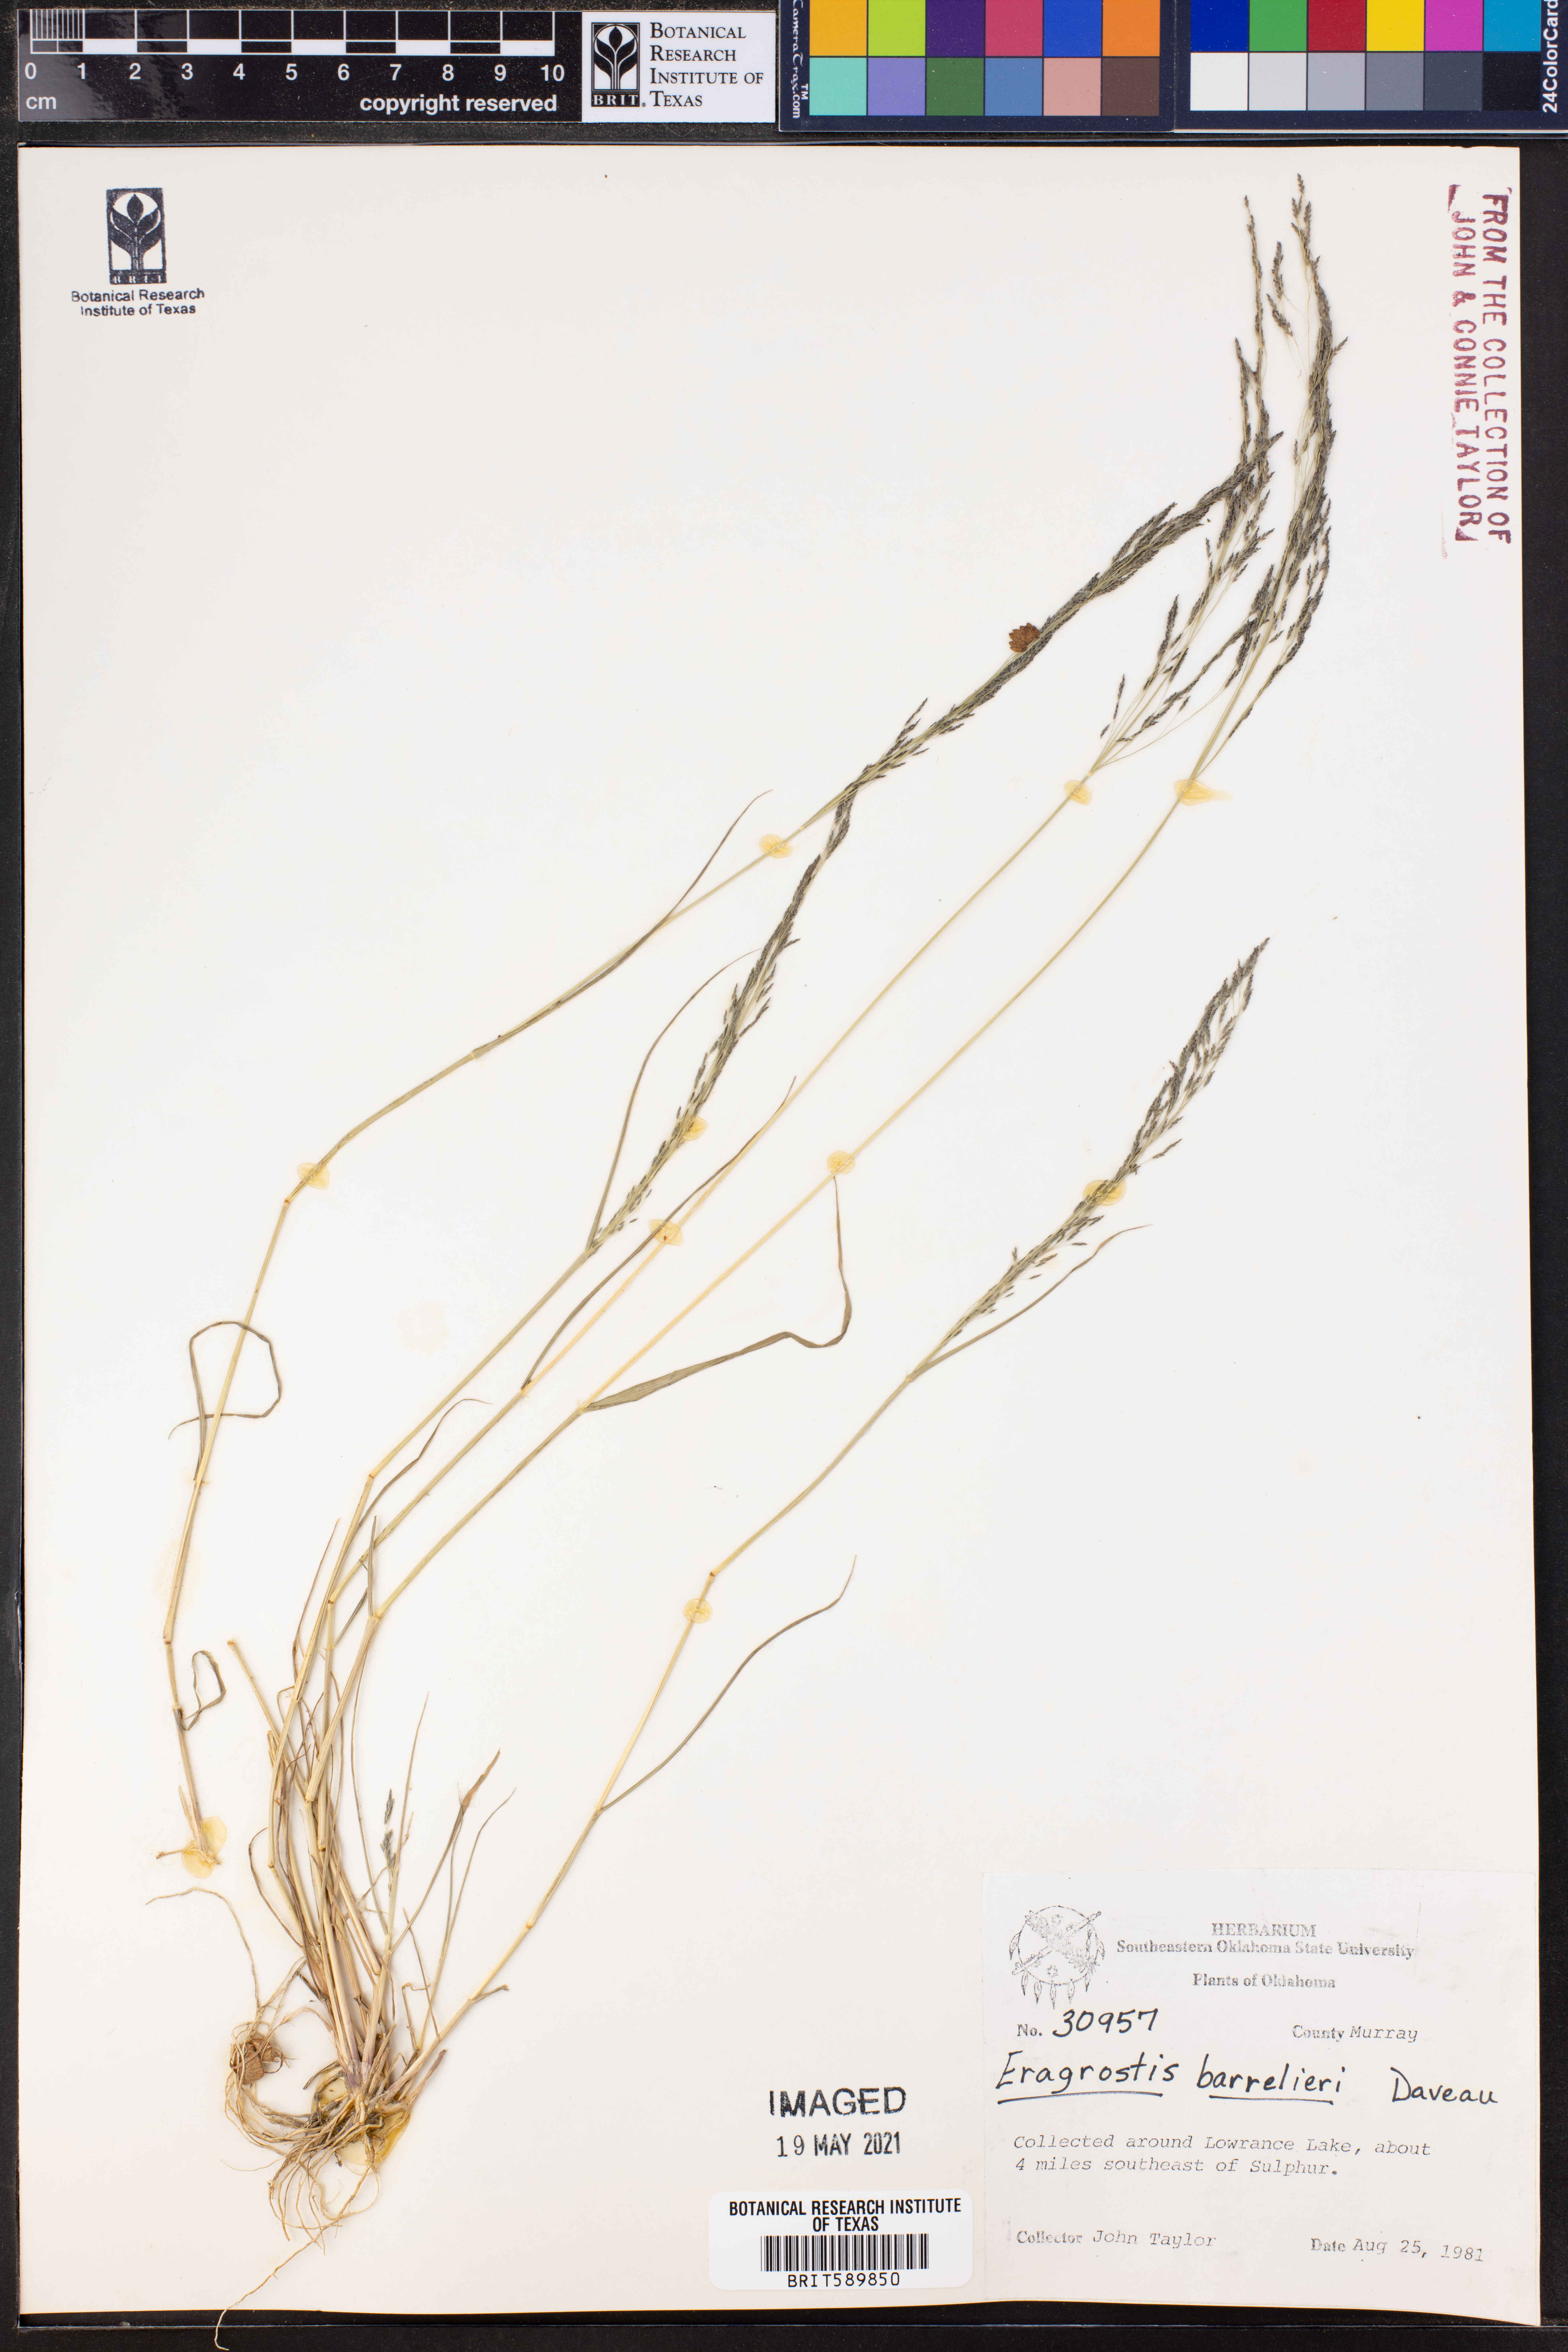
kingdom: Plantae
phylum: Tracheophyta
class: Liliopsida
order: Poales
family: Poaceae
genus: Eragrostis
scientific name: Eragrostis barrelieri
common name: Mediterranean lovegrass
